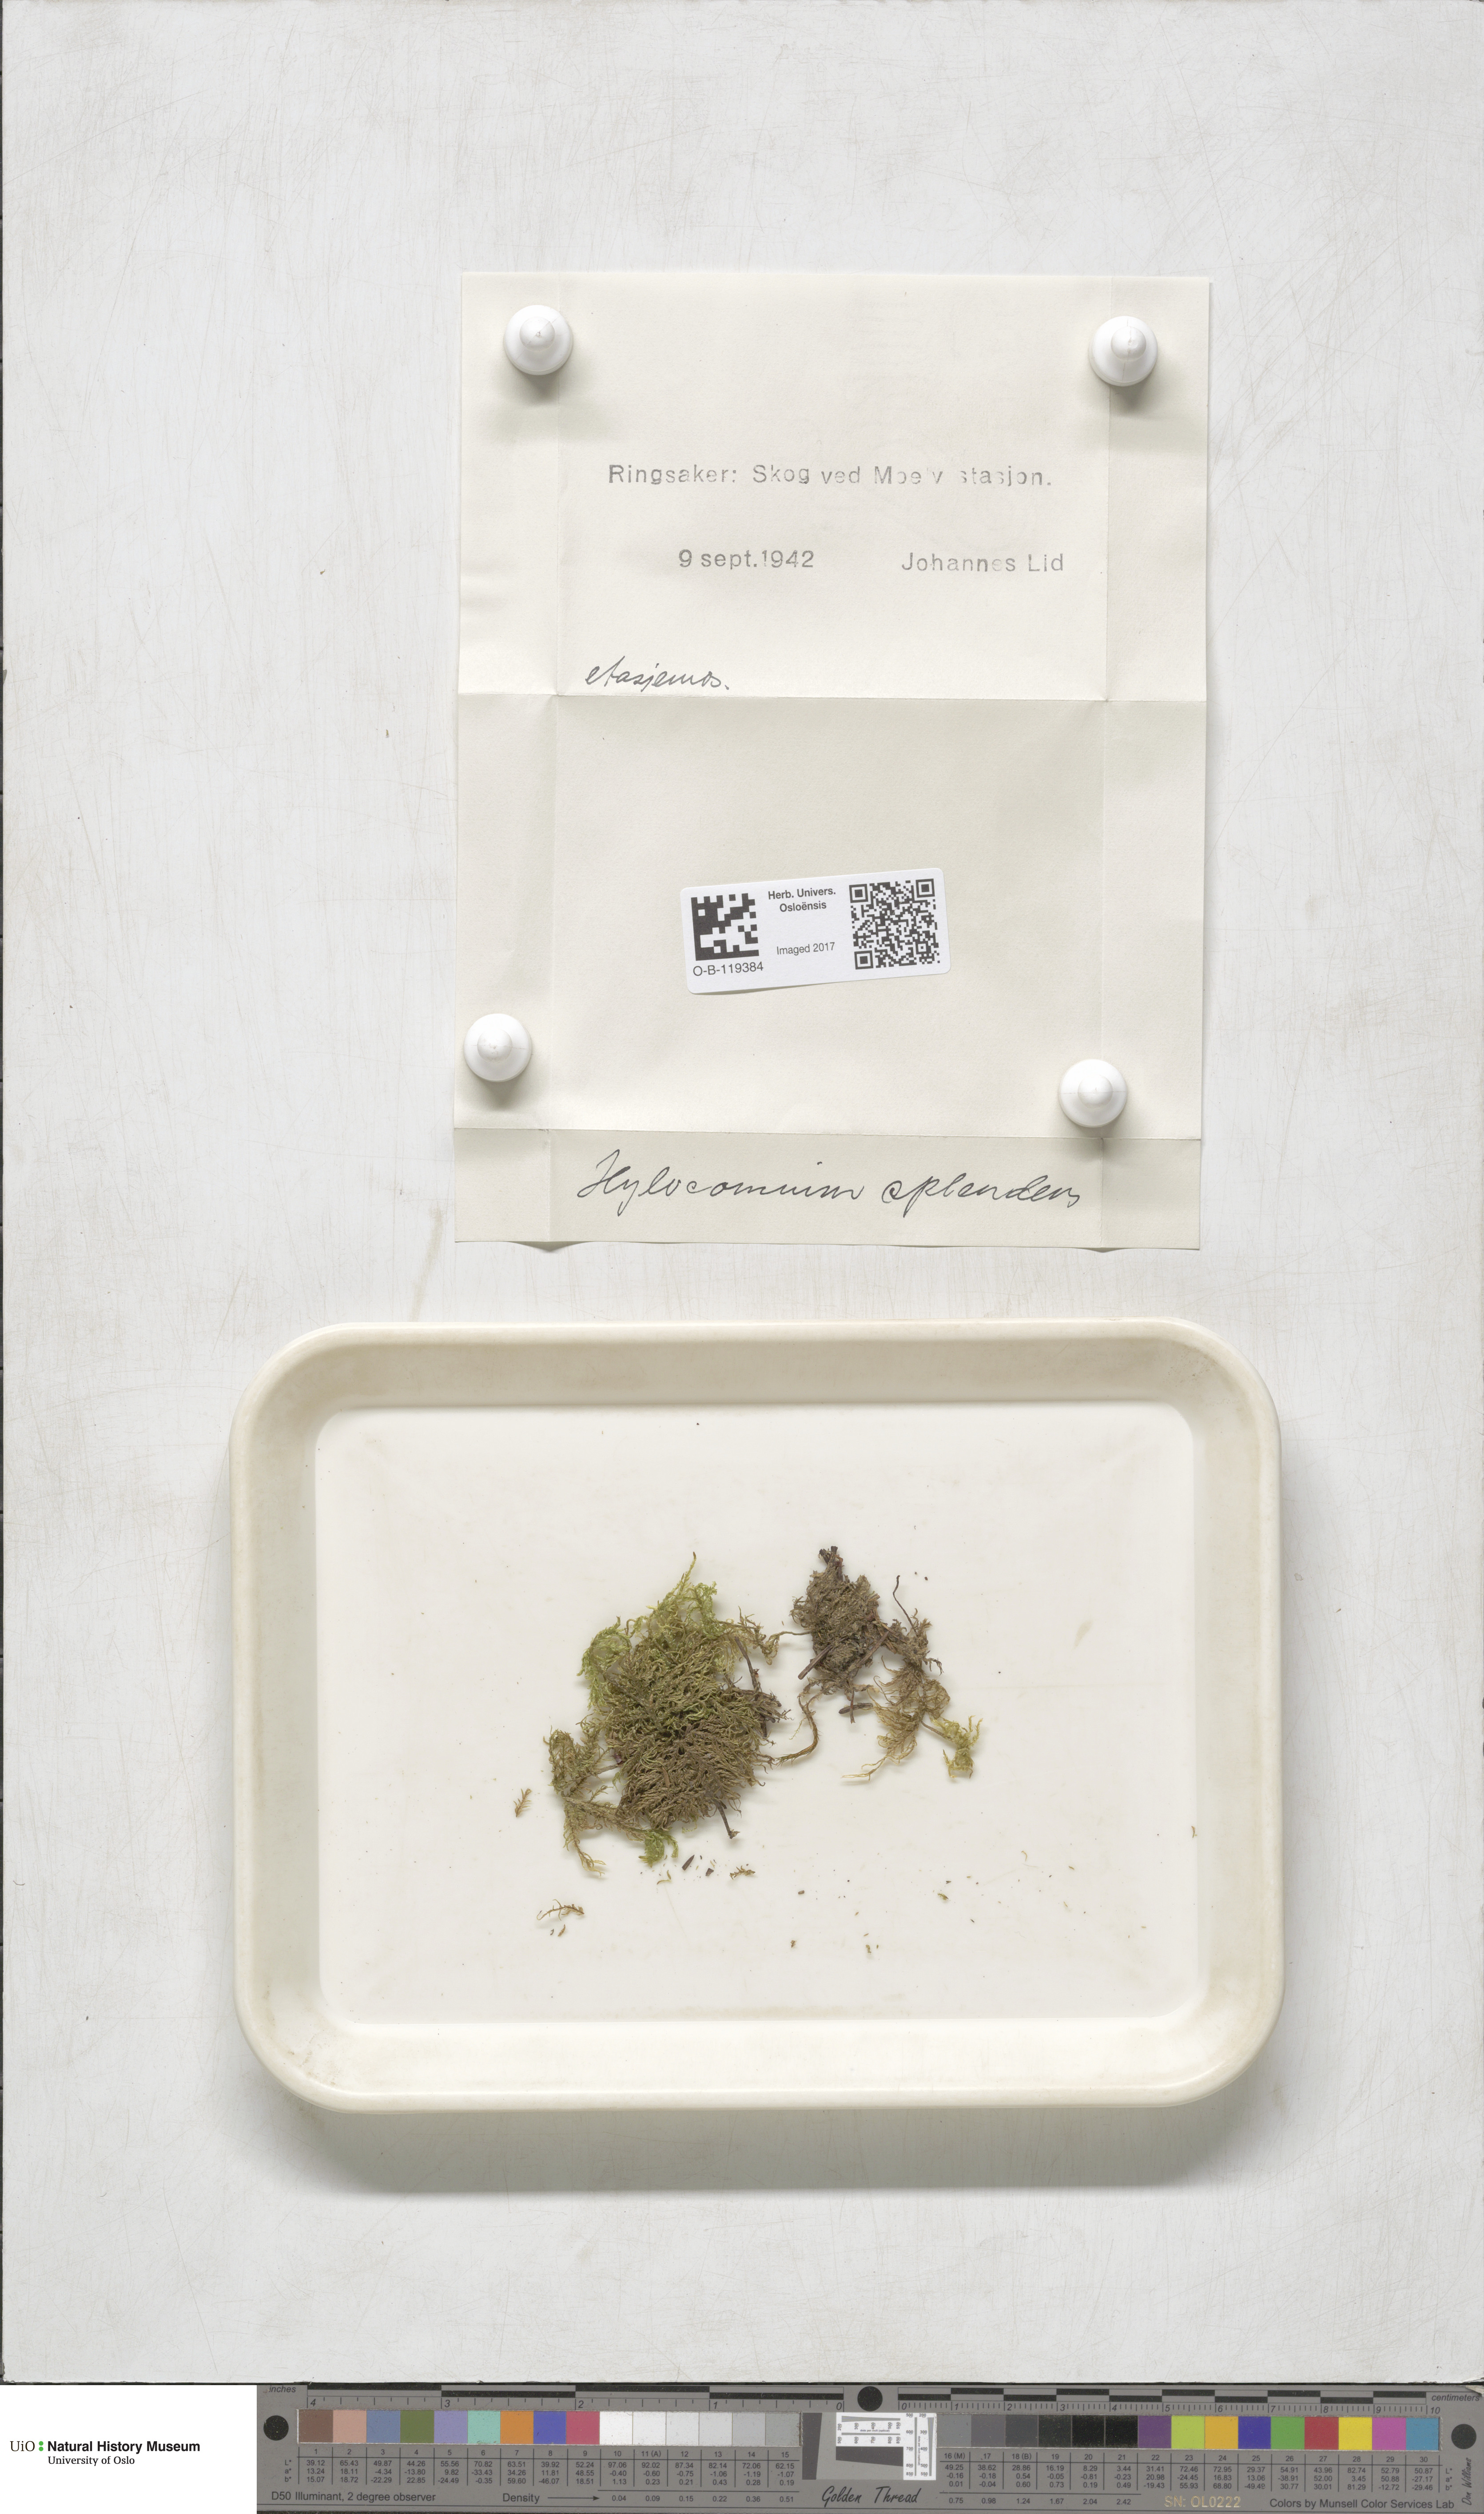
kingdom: Plantae
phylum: Bryophyta
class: Bryopsida
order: Hypnales
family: Hylocomiaceae
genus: Hylocomium
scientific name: Hylocomium splendens
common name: Stairstep moss
